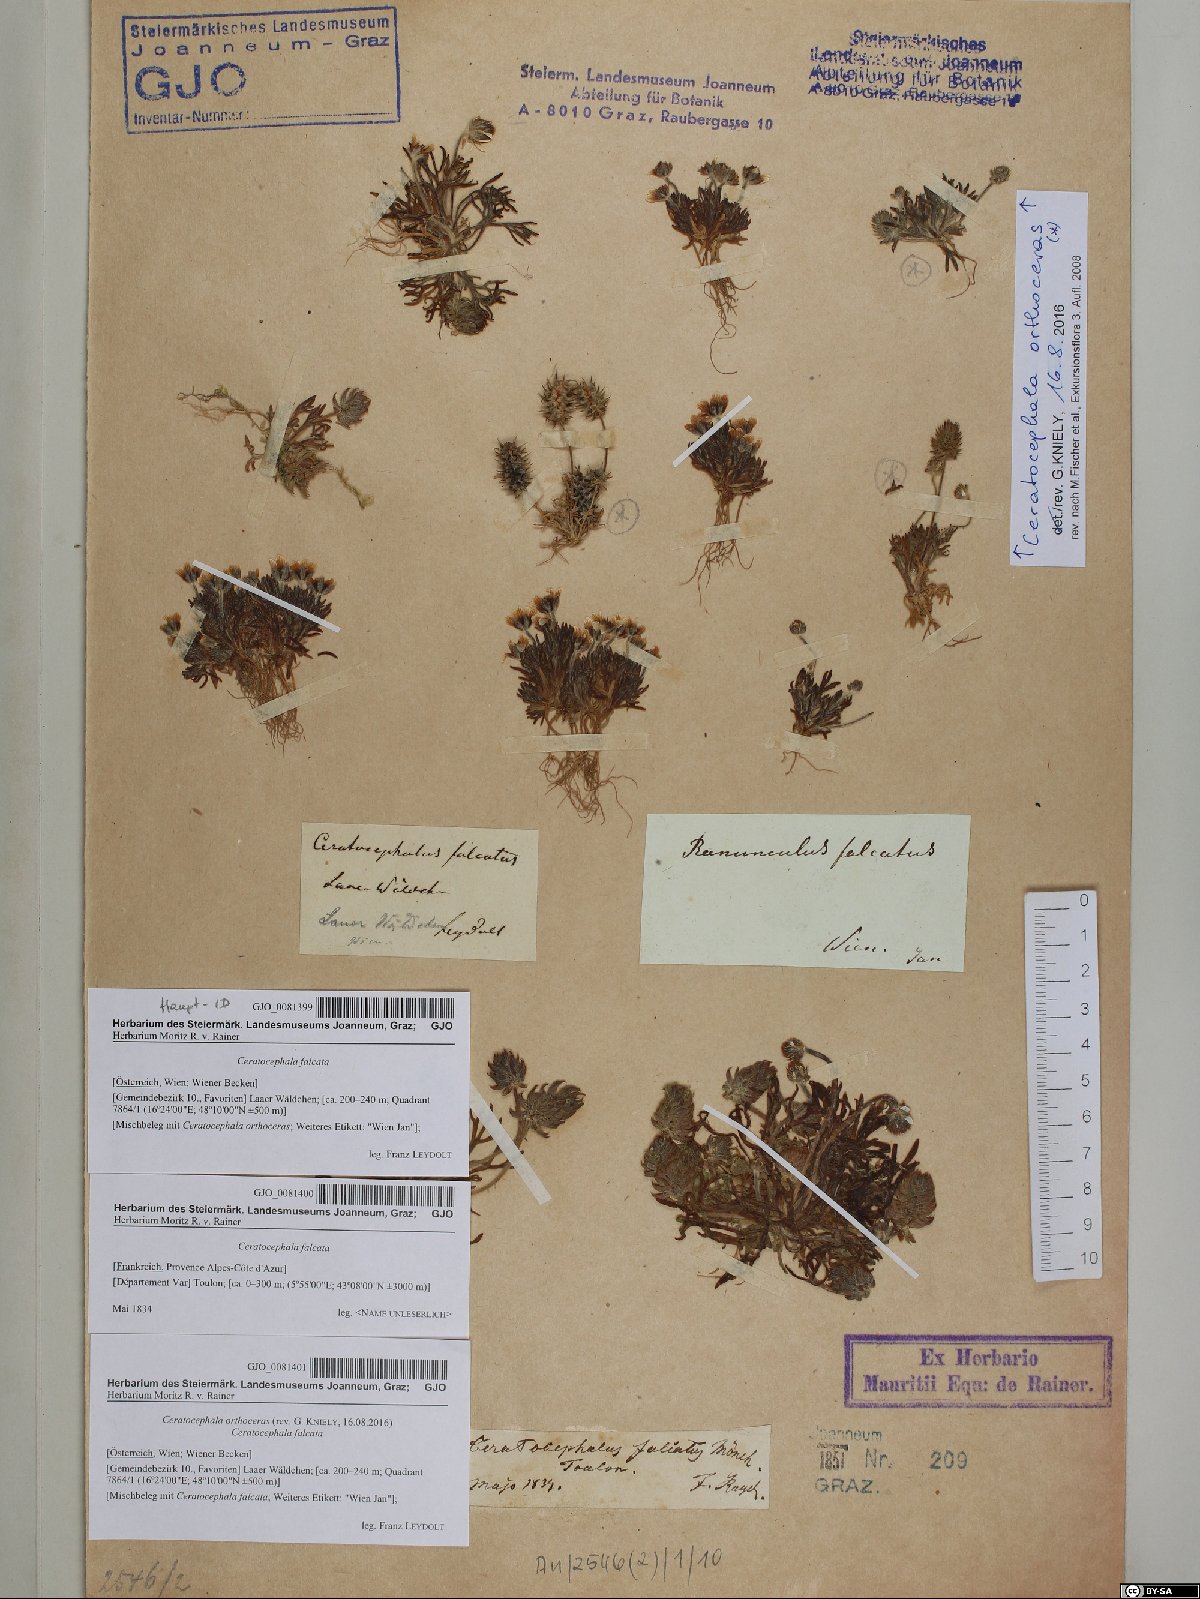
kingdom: Plantae
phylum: Tracheophyta
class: Magnoliopsida
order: Ranunculales
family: Ranunculaceae
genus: Ceratocephala
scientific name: Ceratocephala falcata
